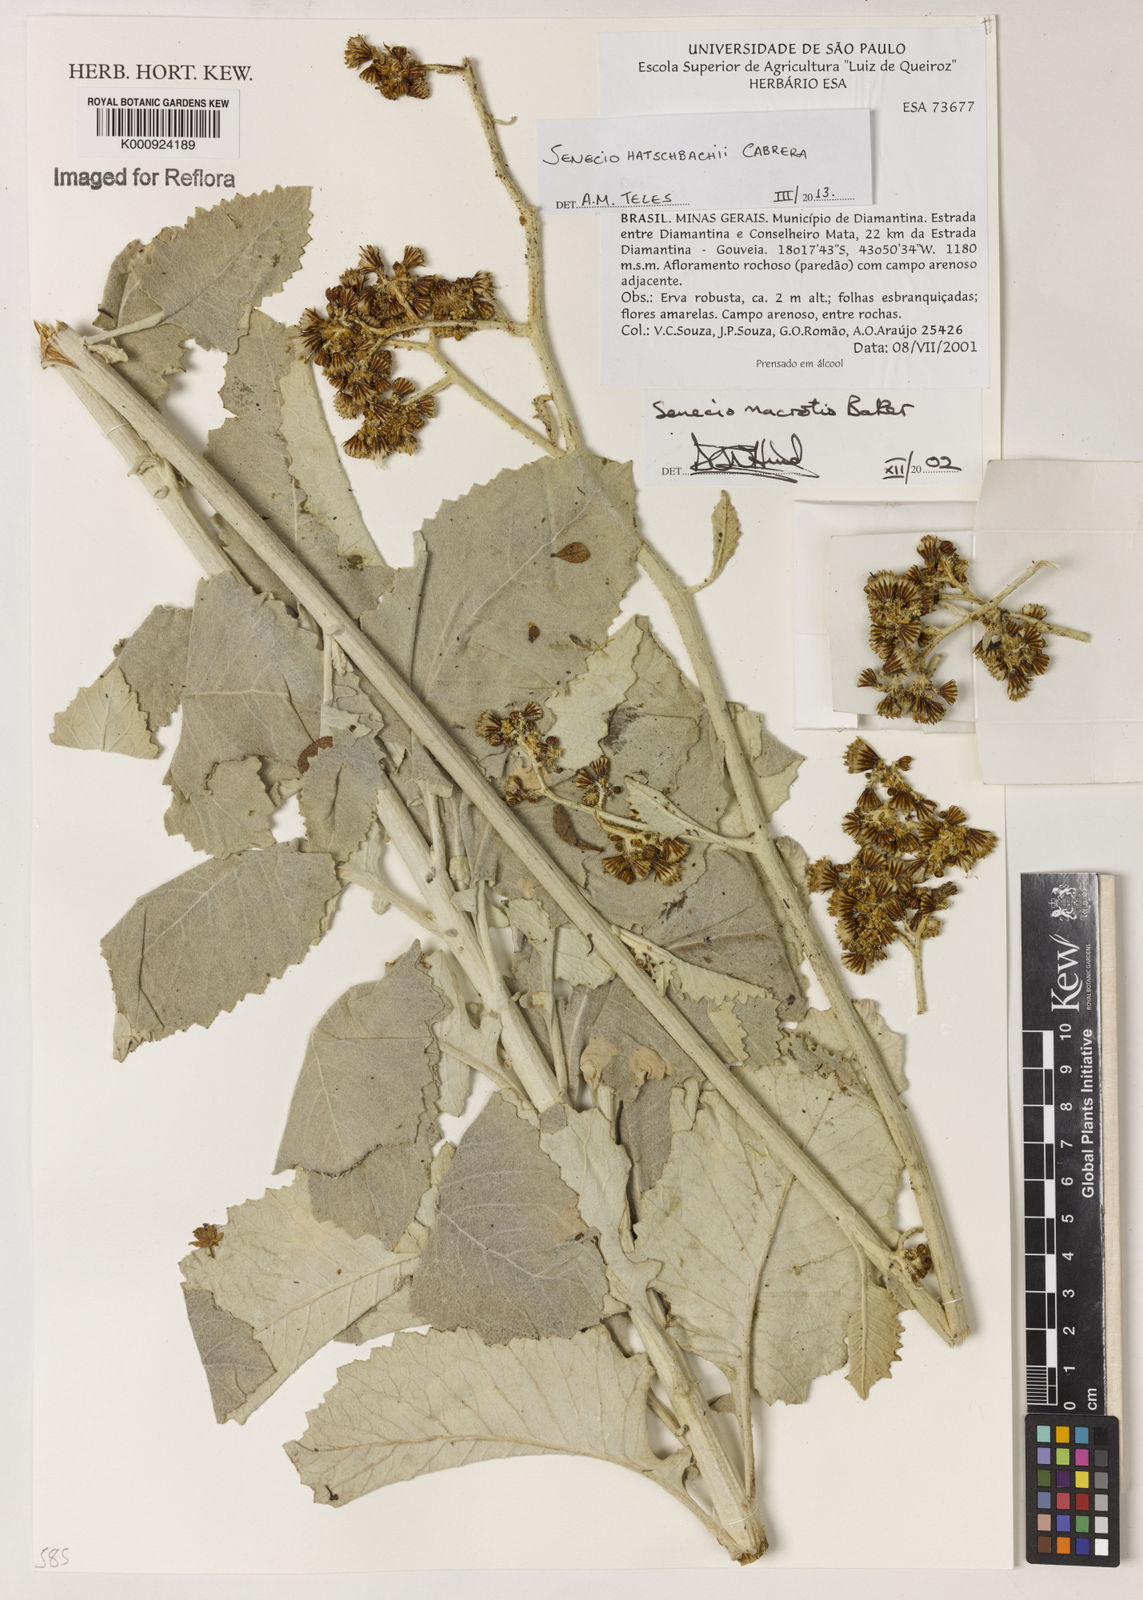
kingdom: Plantae
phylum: Tracheophyta
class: Magnoliopsida
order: Asterales
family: Asteraceae
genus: Senecio
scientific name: Senecio hatschbachii
